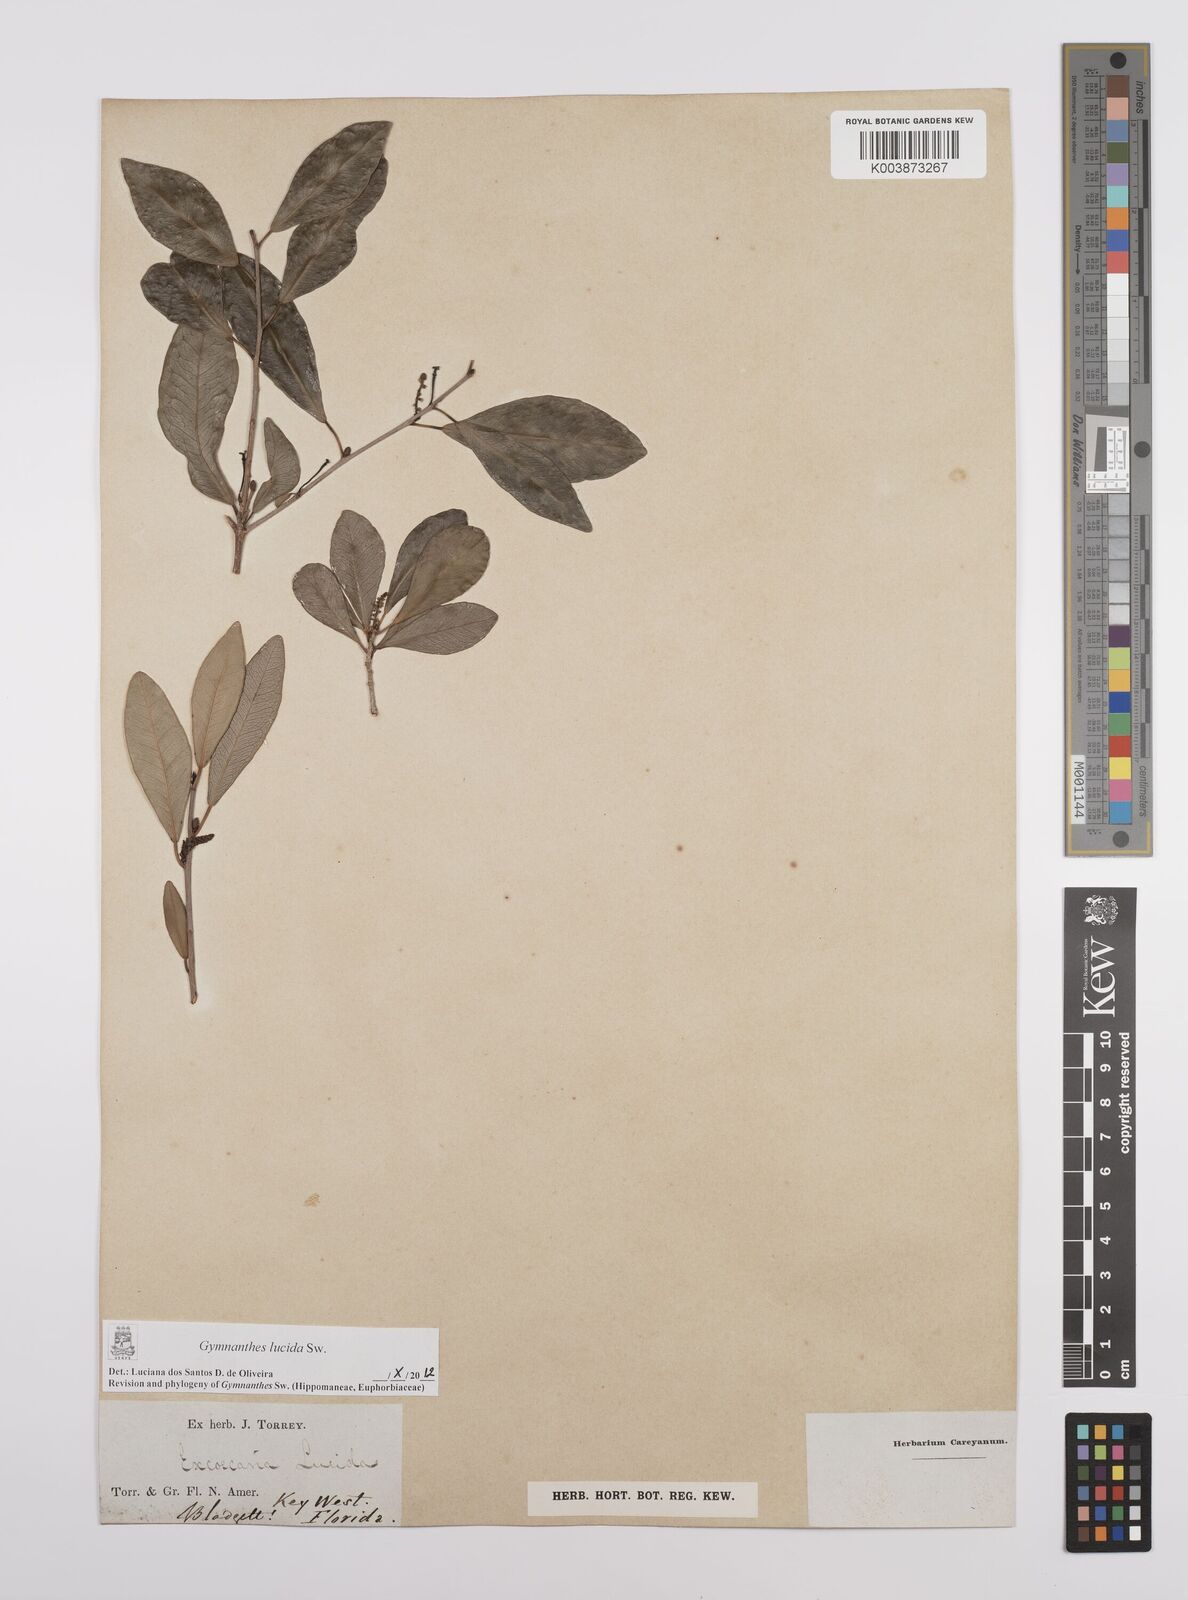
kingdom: Plantae
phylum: Tracheophyta
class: Magnoliopsida
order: Malpighiales
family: Euphorbiaceae
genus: Gymnanthes
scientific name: Gymnanthes lucida
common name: Oysterwood
